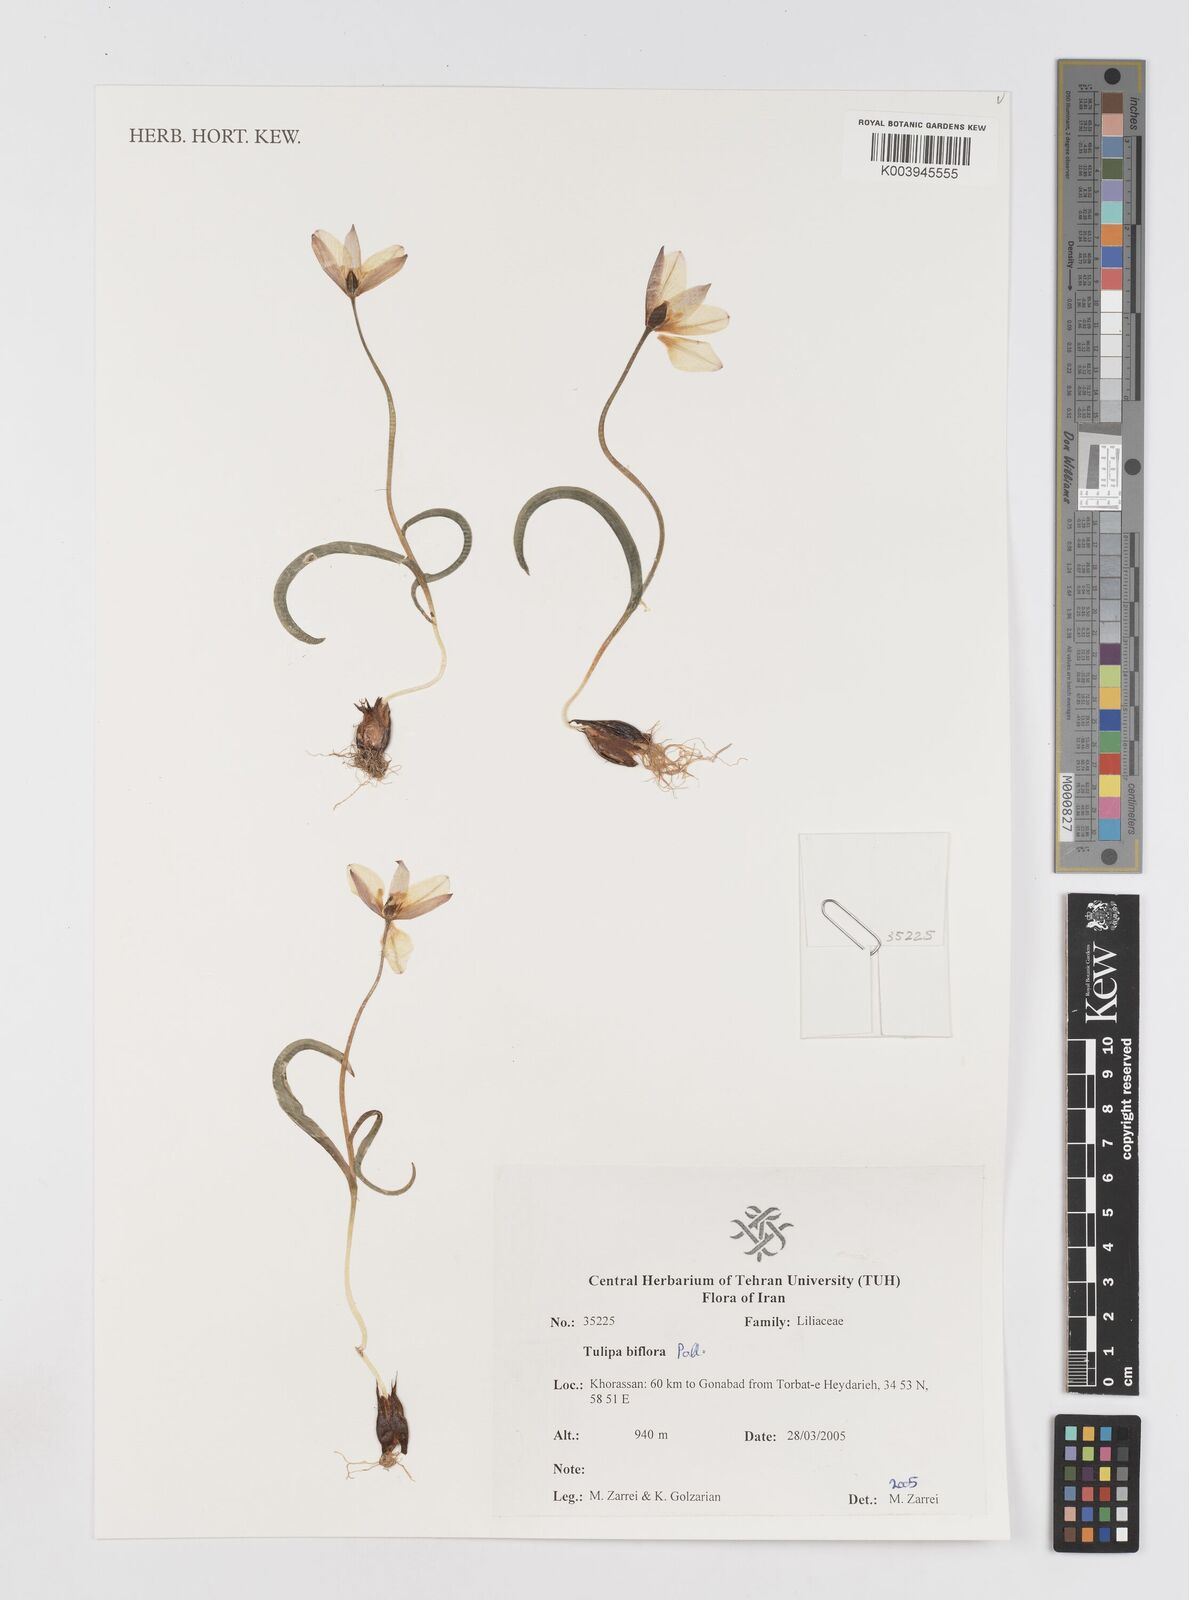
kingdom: Plantae
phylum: Tracheophyta
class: Liliopsida
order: Liliales
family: Liliaceae
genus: Tulipa
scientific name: Tulipa biflora
